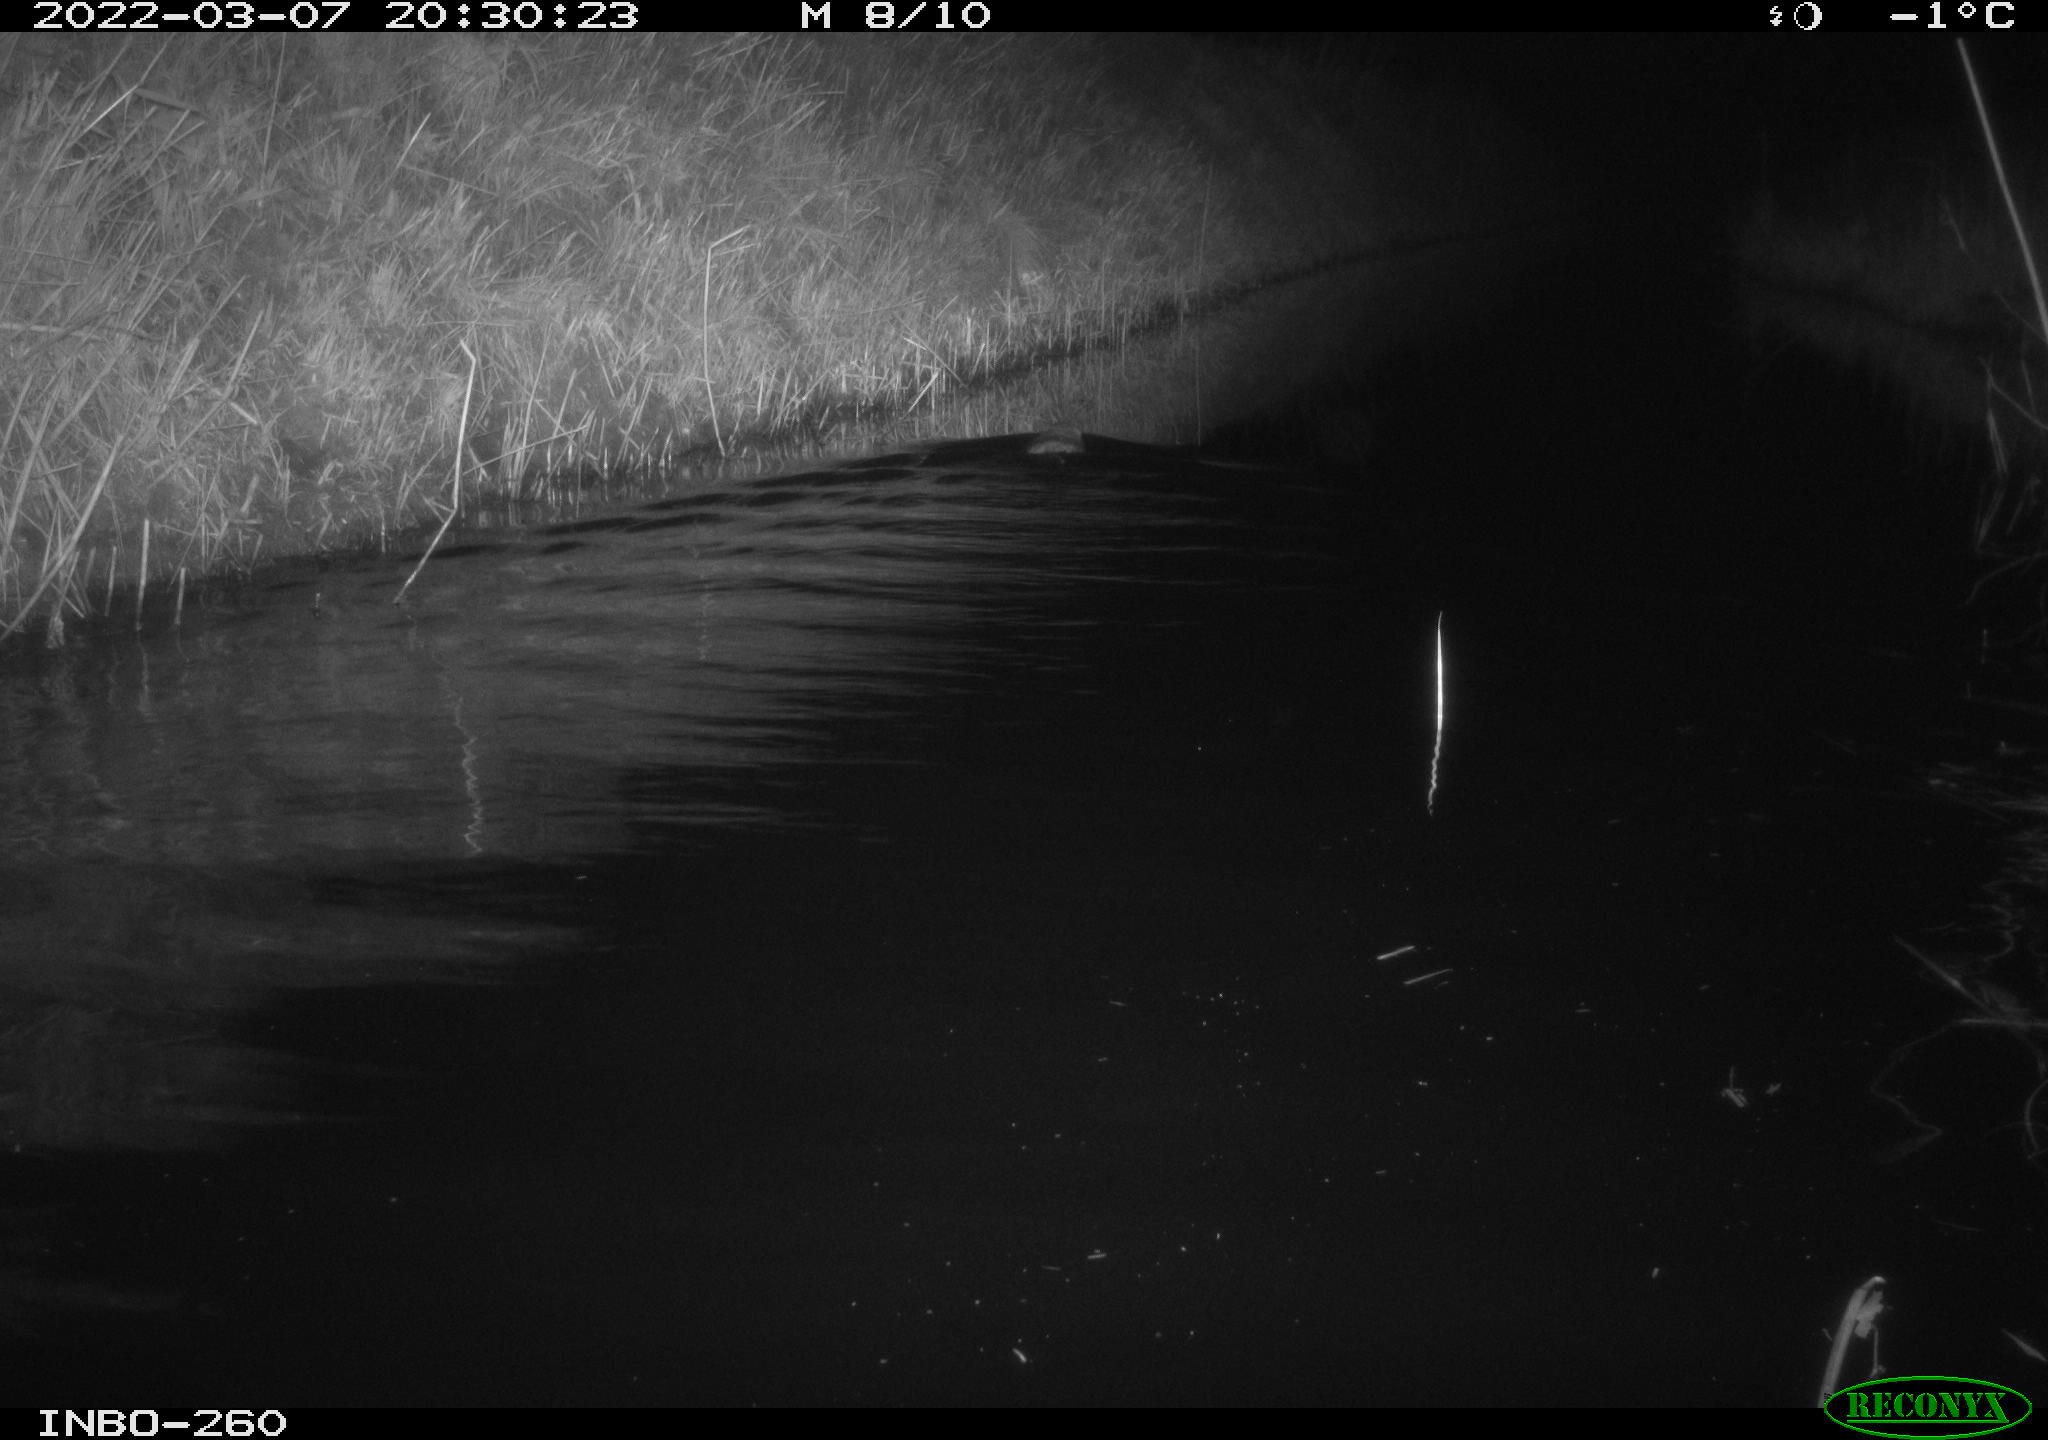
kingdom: Animalia
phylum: Chordata
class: Mammalia
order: Rodentia
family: Cricetidae
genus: Ondatra
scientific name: Ondatra zibethicus
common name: Muskrat
